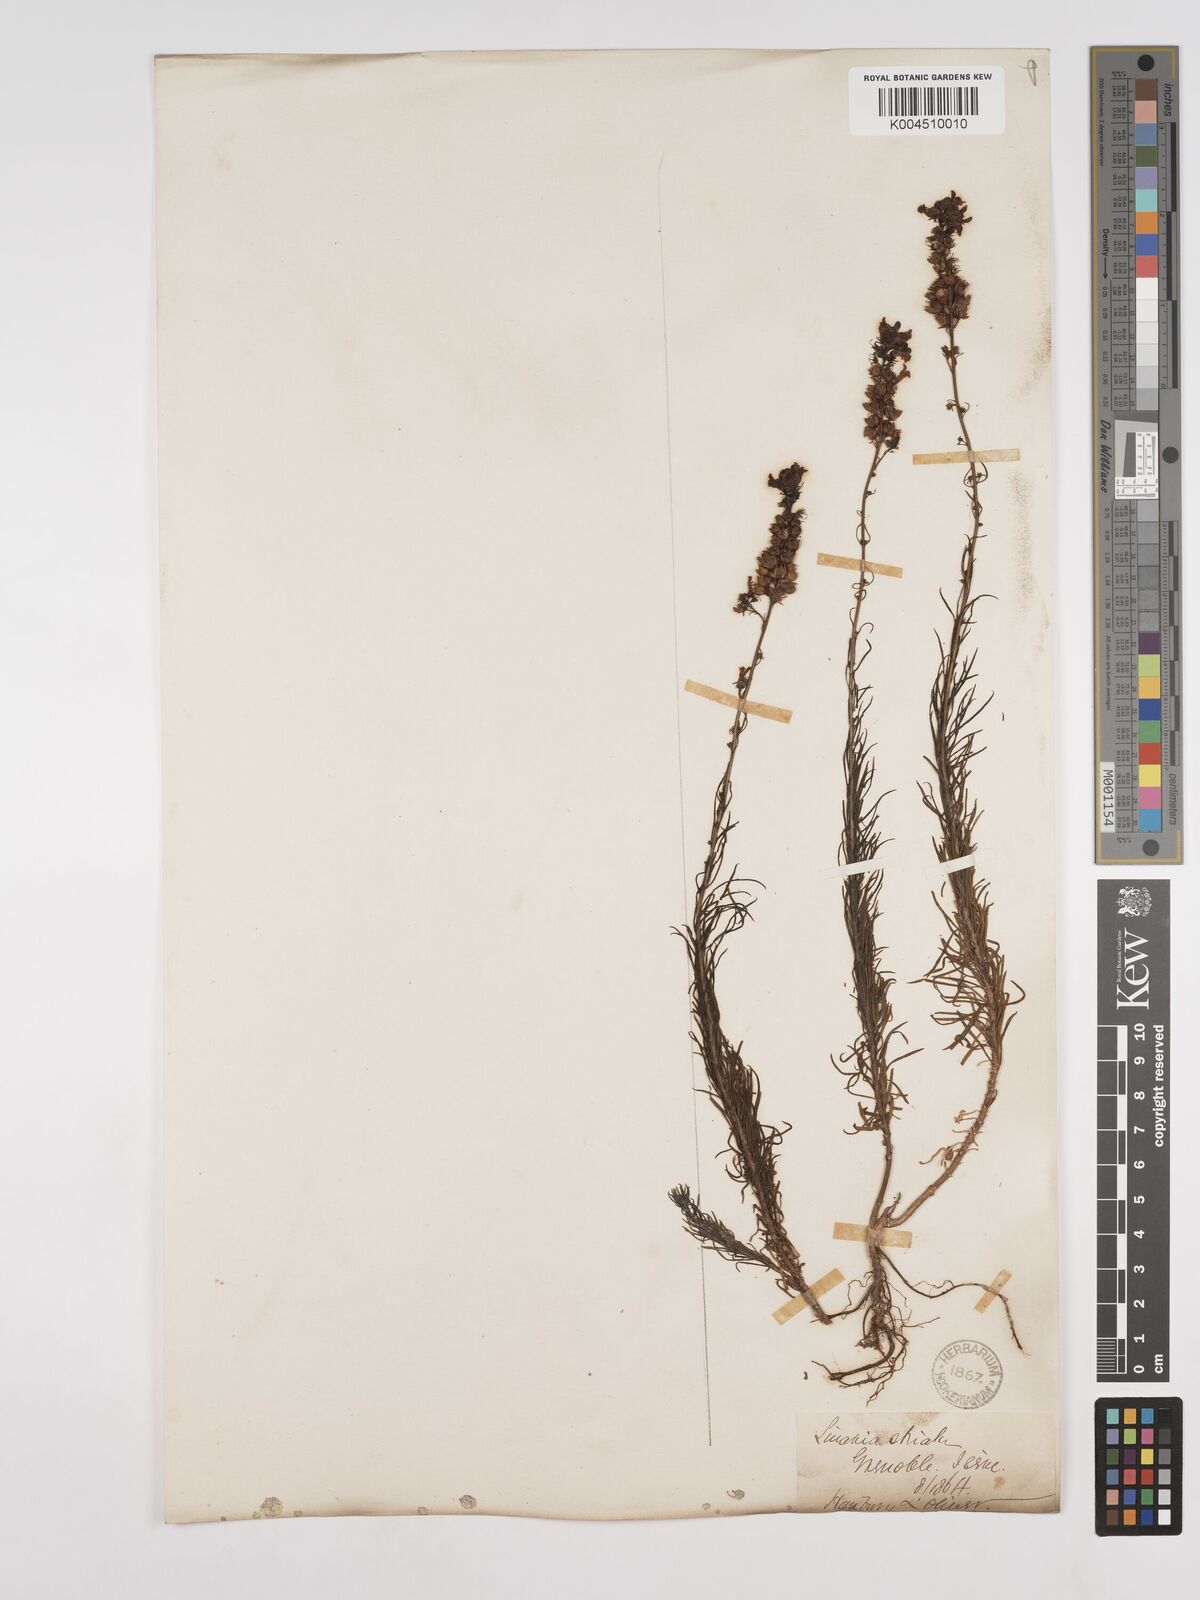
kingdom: Plantae
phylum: Tracheophyta
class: Magnoliopsida
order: Lamiales
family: Plantaginaceae
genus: Linaria
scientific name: Linaria repens
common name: Pale toadflax
